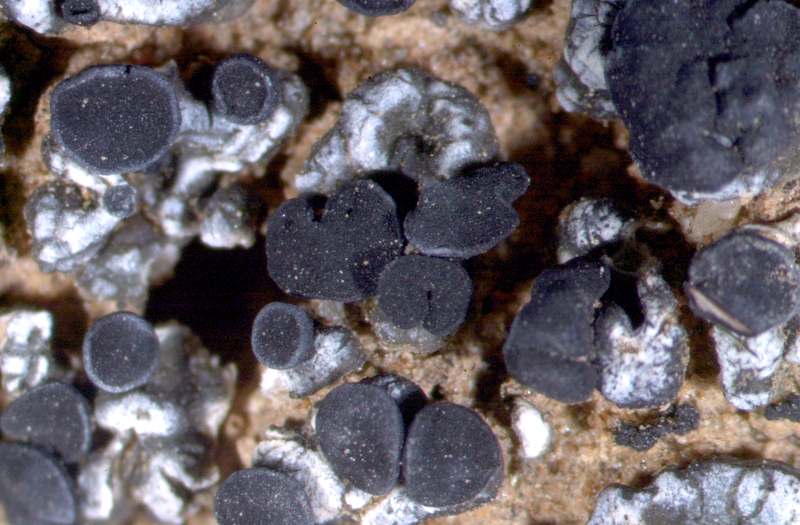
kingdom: Fungi
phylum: Ascomycota
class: Lecanoromycetes
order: Lecanorales
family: Ramalinaceae
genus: Bibbya
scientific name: Bibbya lutosa
